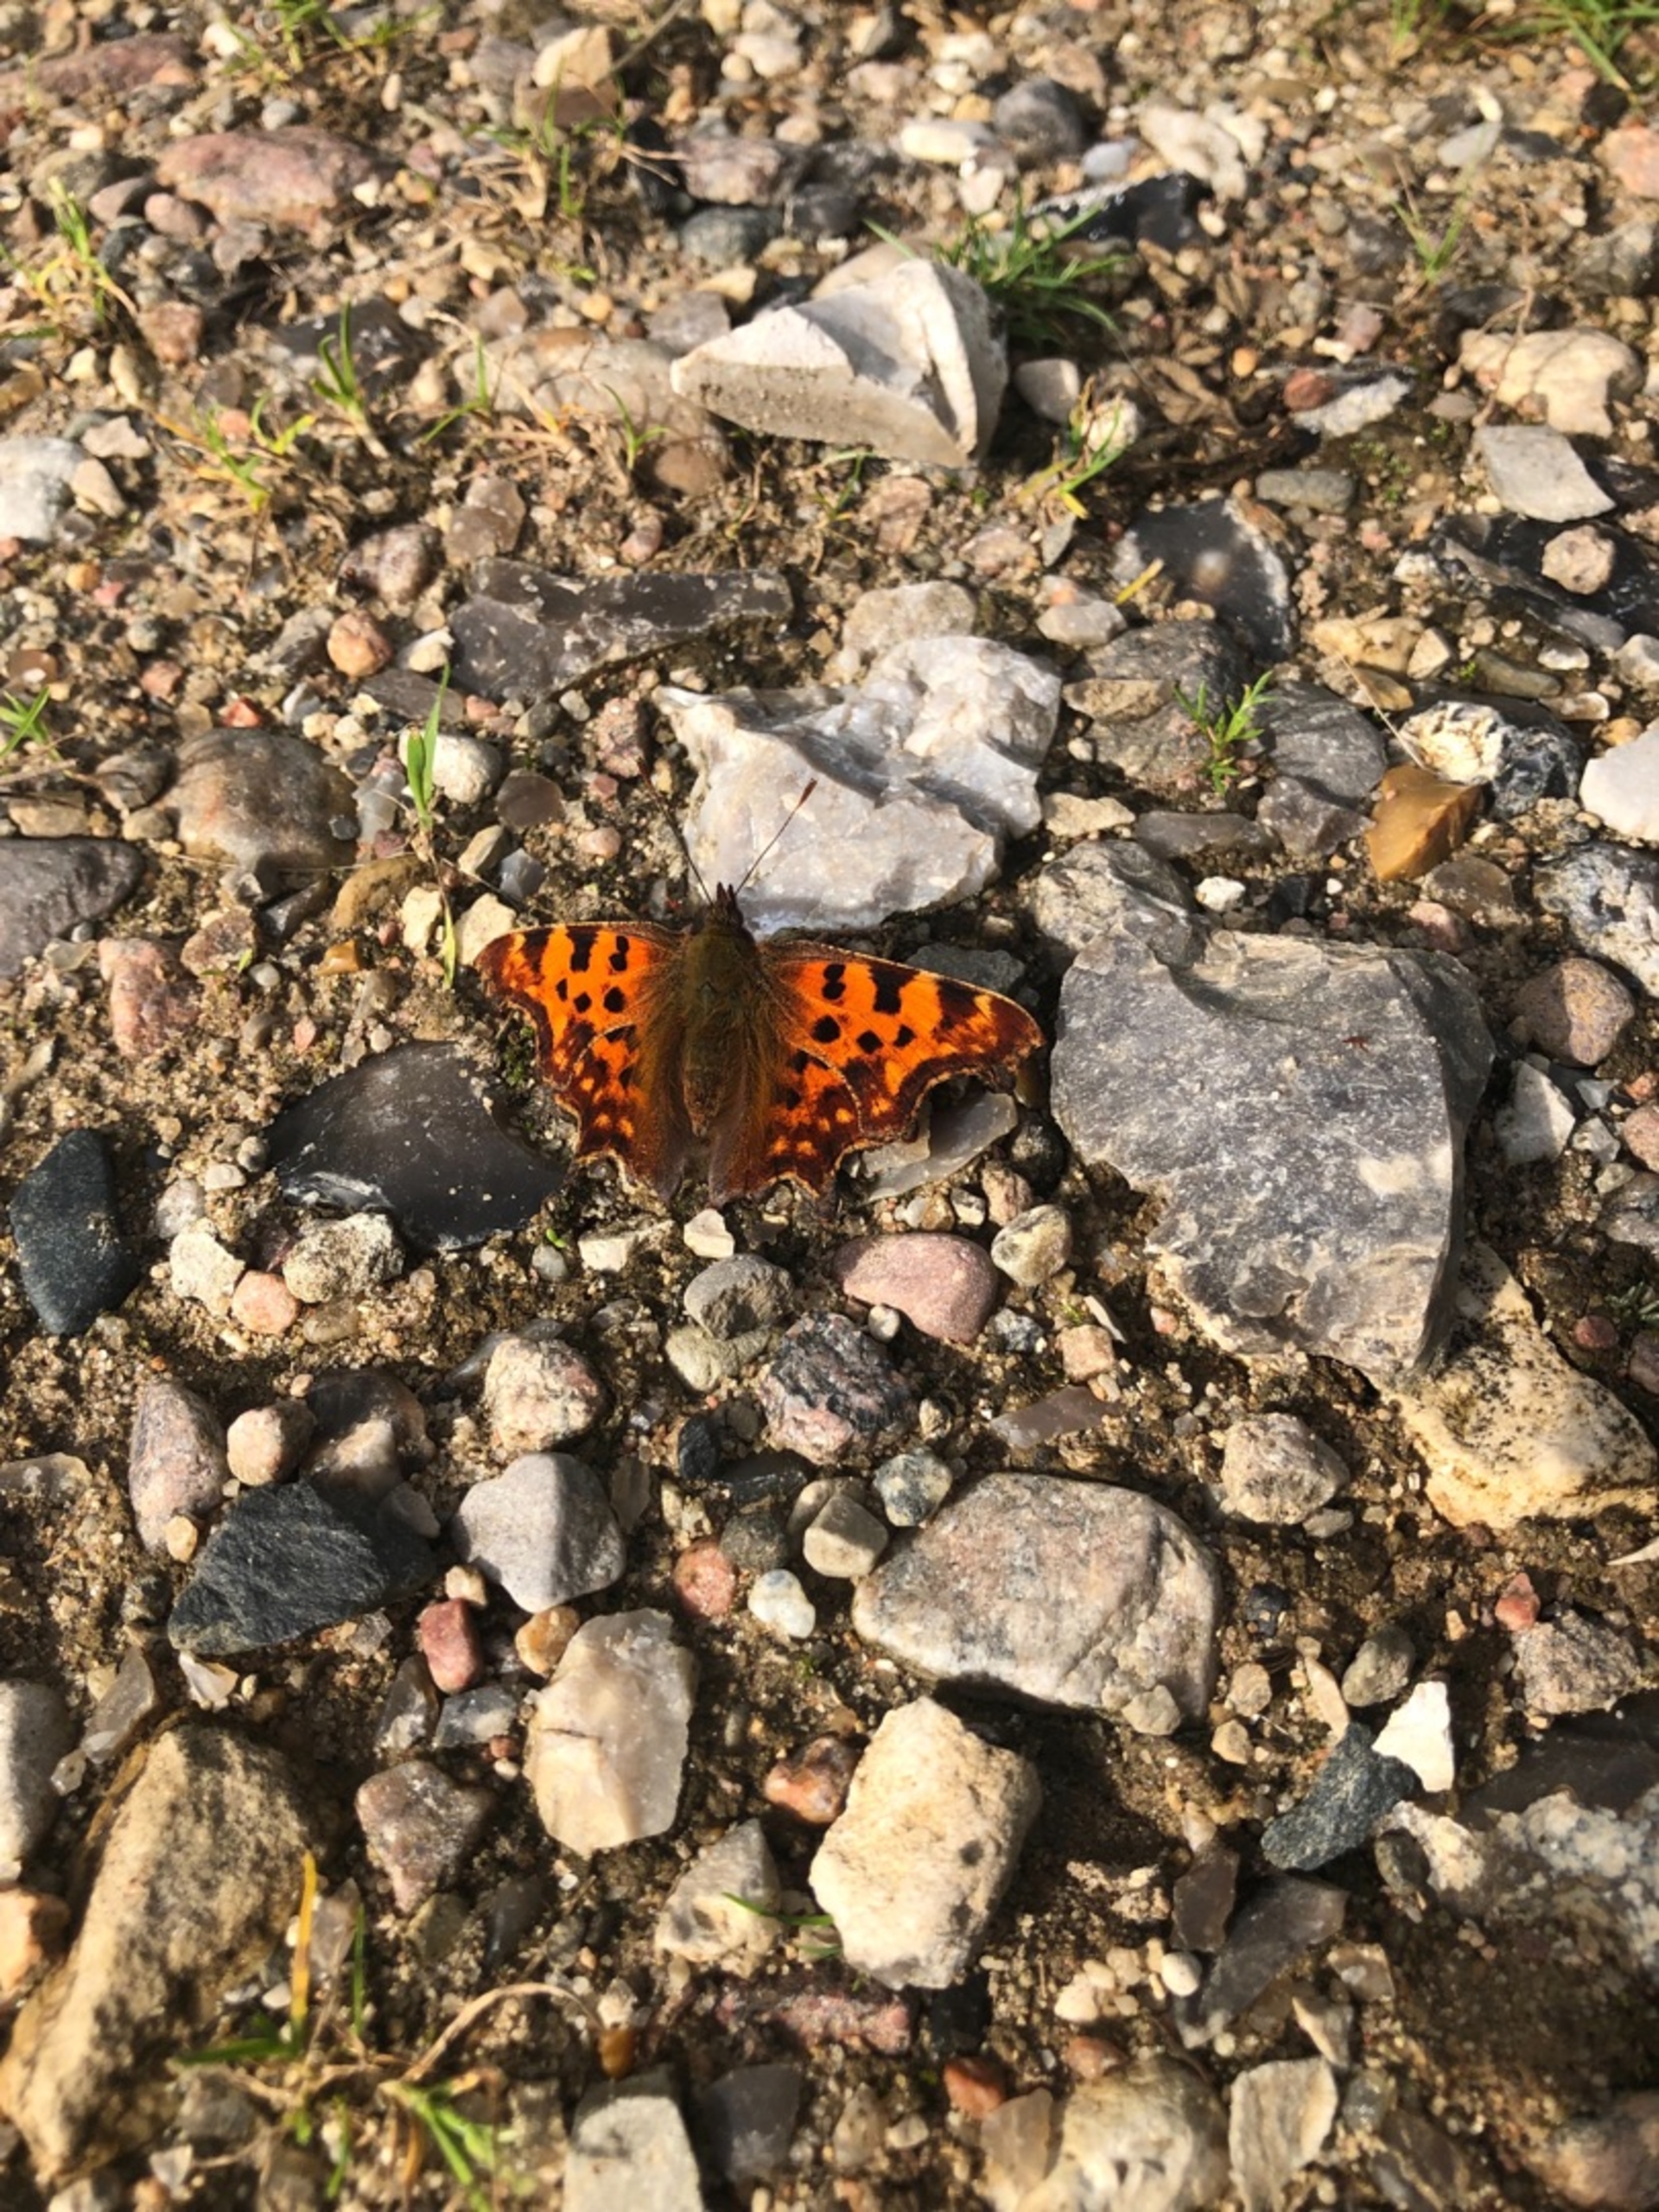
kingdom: Animalia
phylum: Arthropoda
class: Insecta
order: Lepidoptera
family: Nymphalidae
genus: Polygonia
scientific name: Polygonia c-album
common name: Det hvide C
